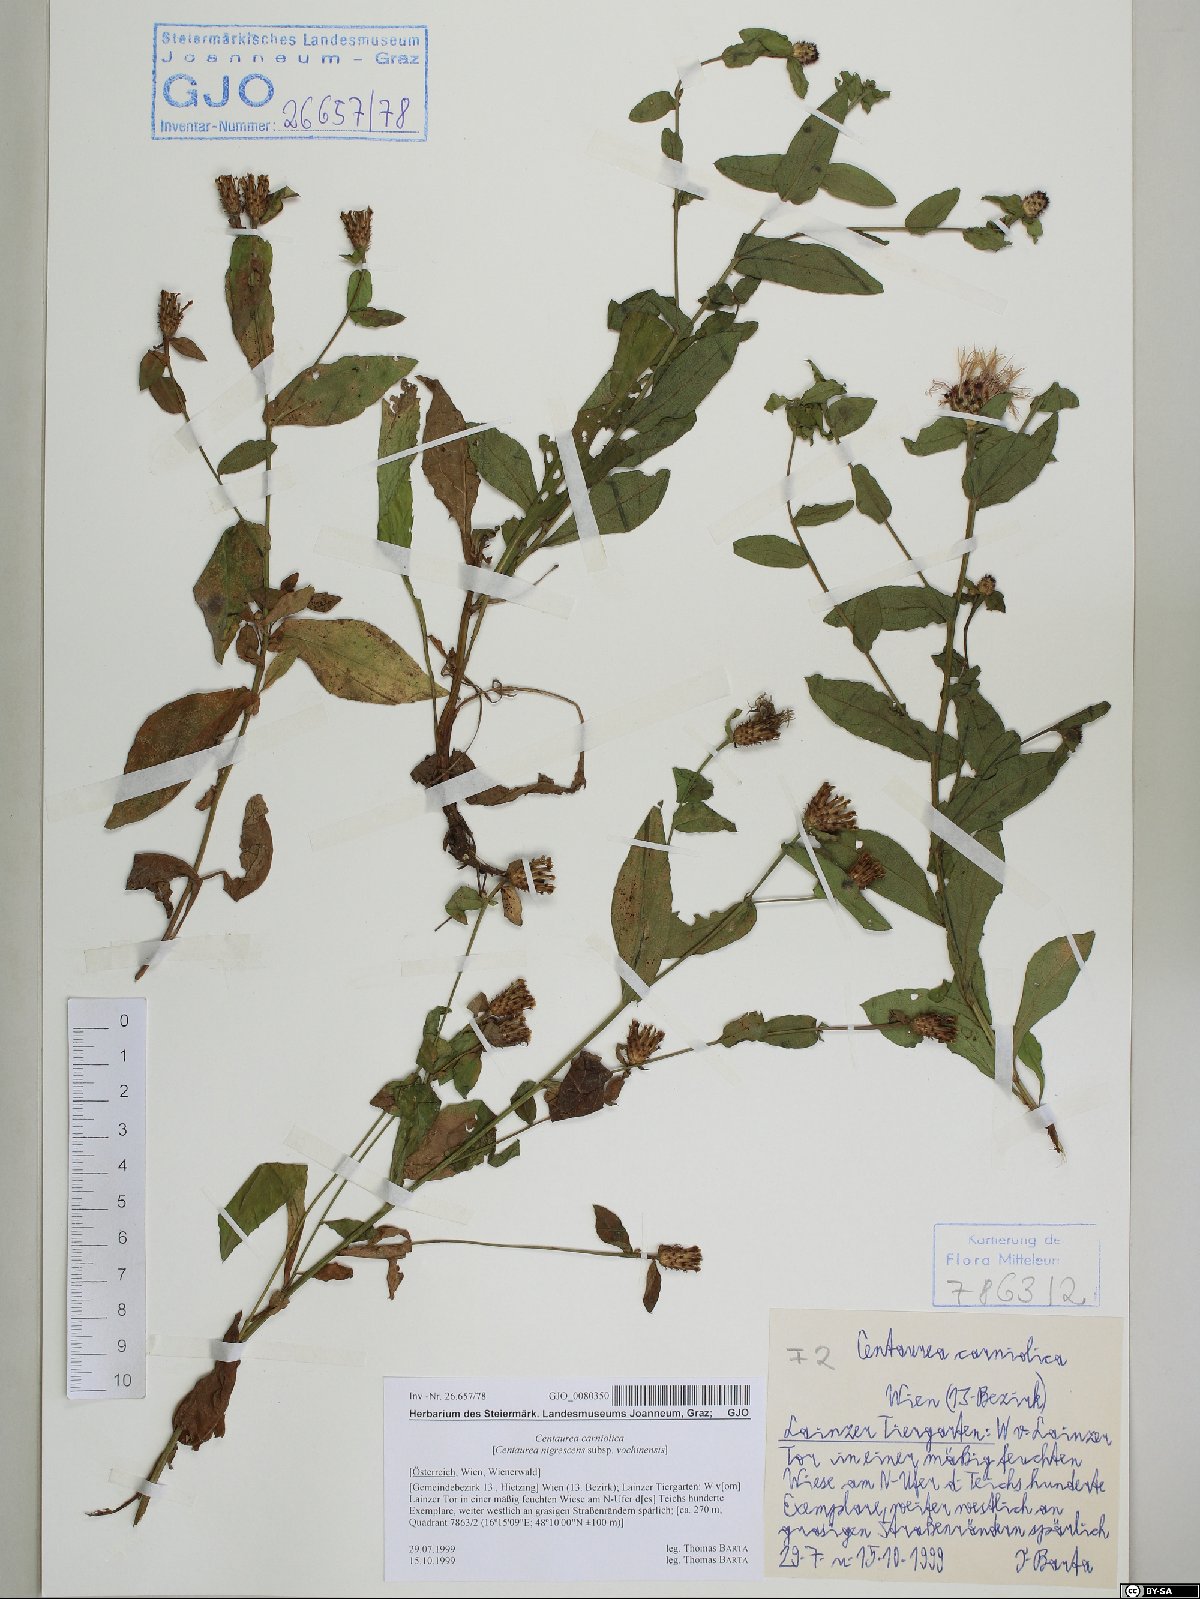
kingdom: Plantae
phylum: Tracheophyta
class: Magnoliopsida
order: Asterales
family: Asteraceae
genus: Centaurea
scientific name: Centaurea carniolica
